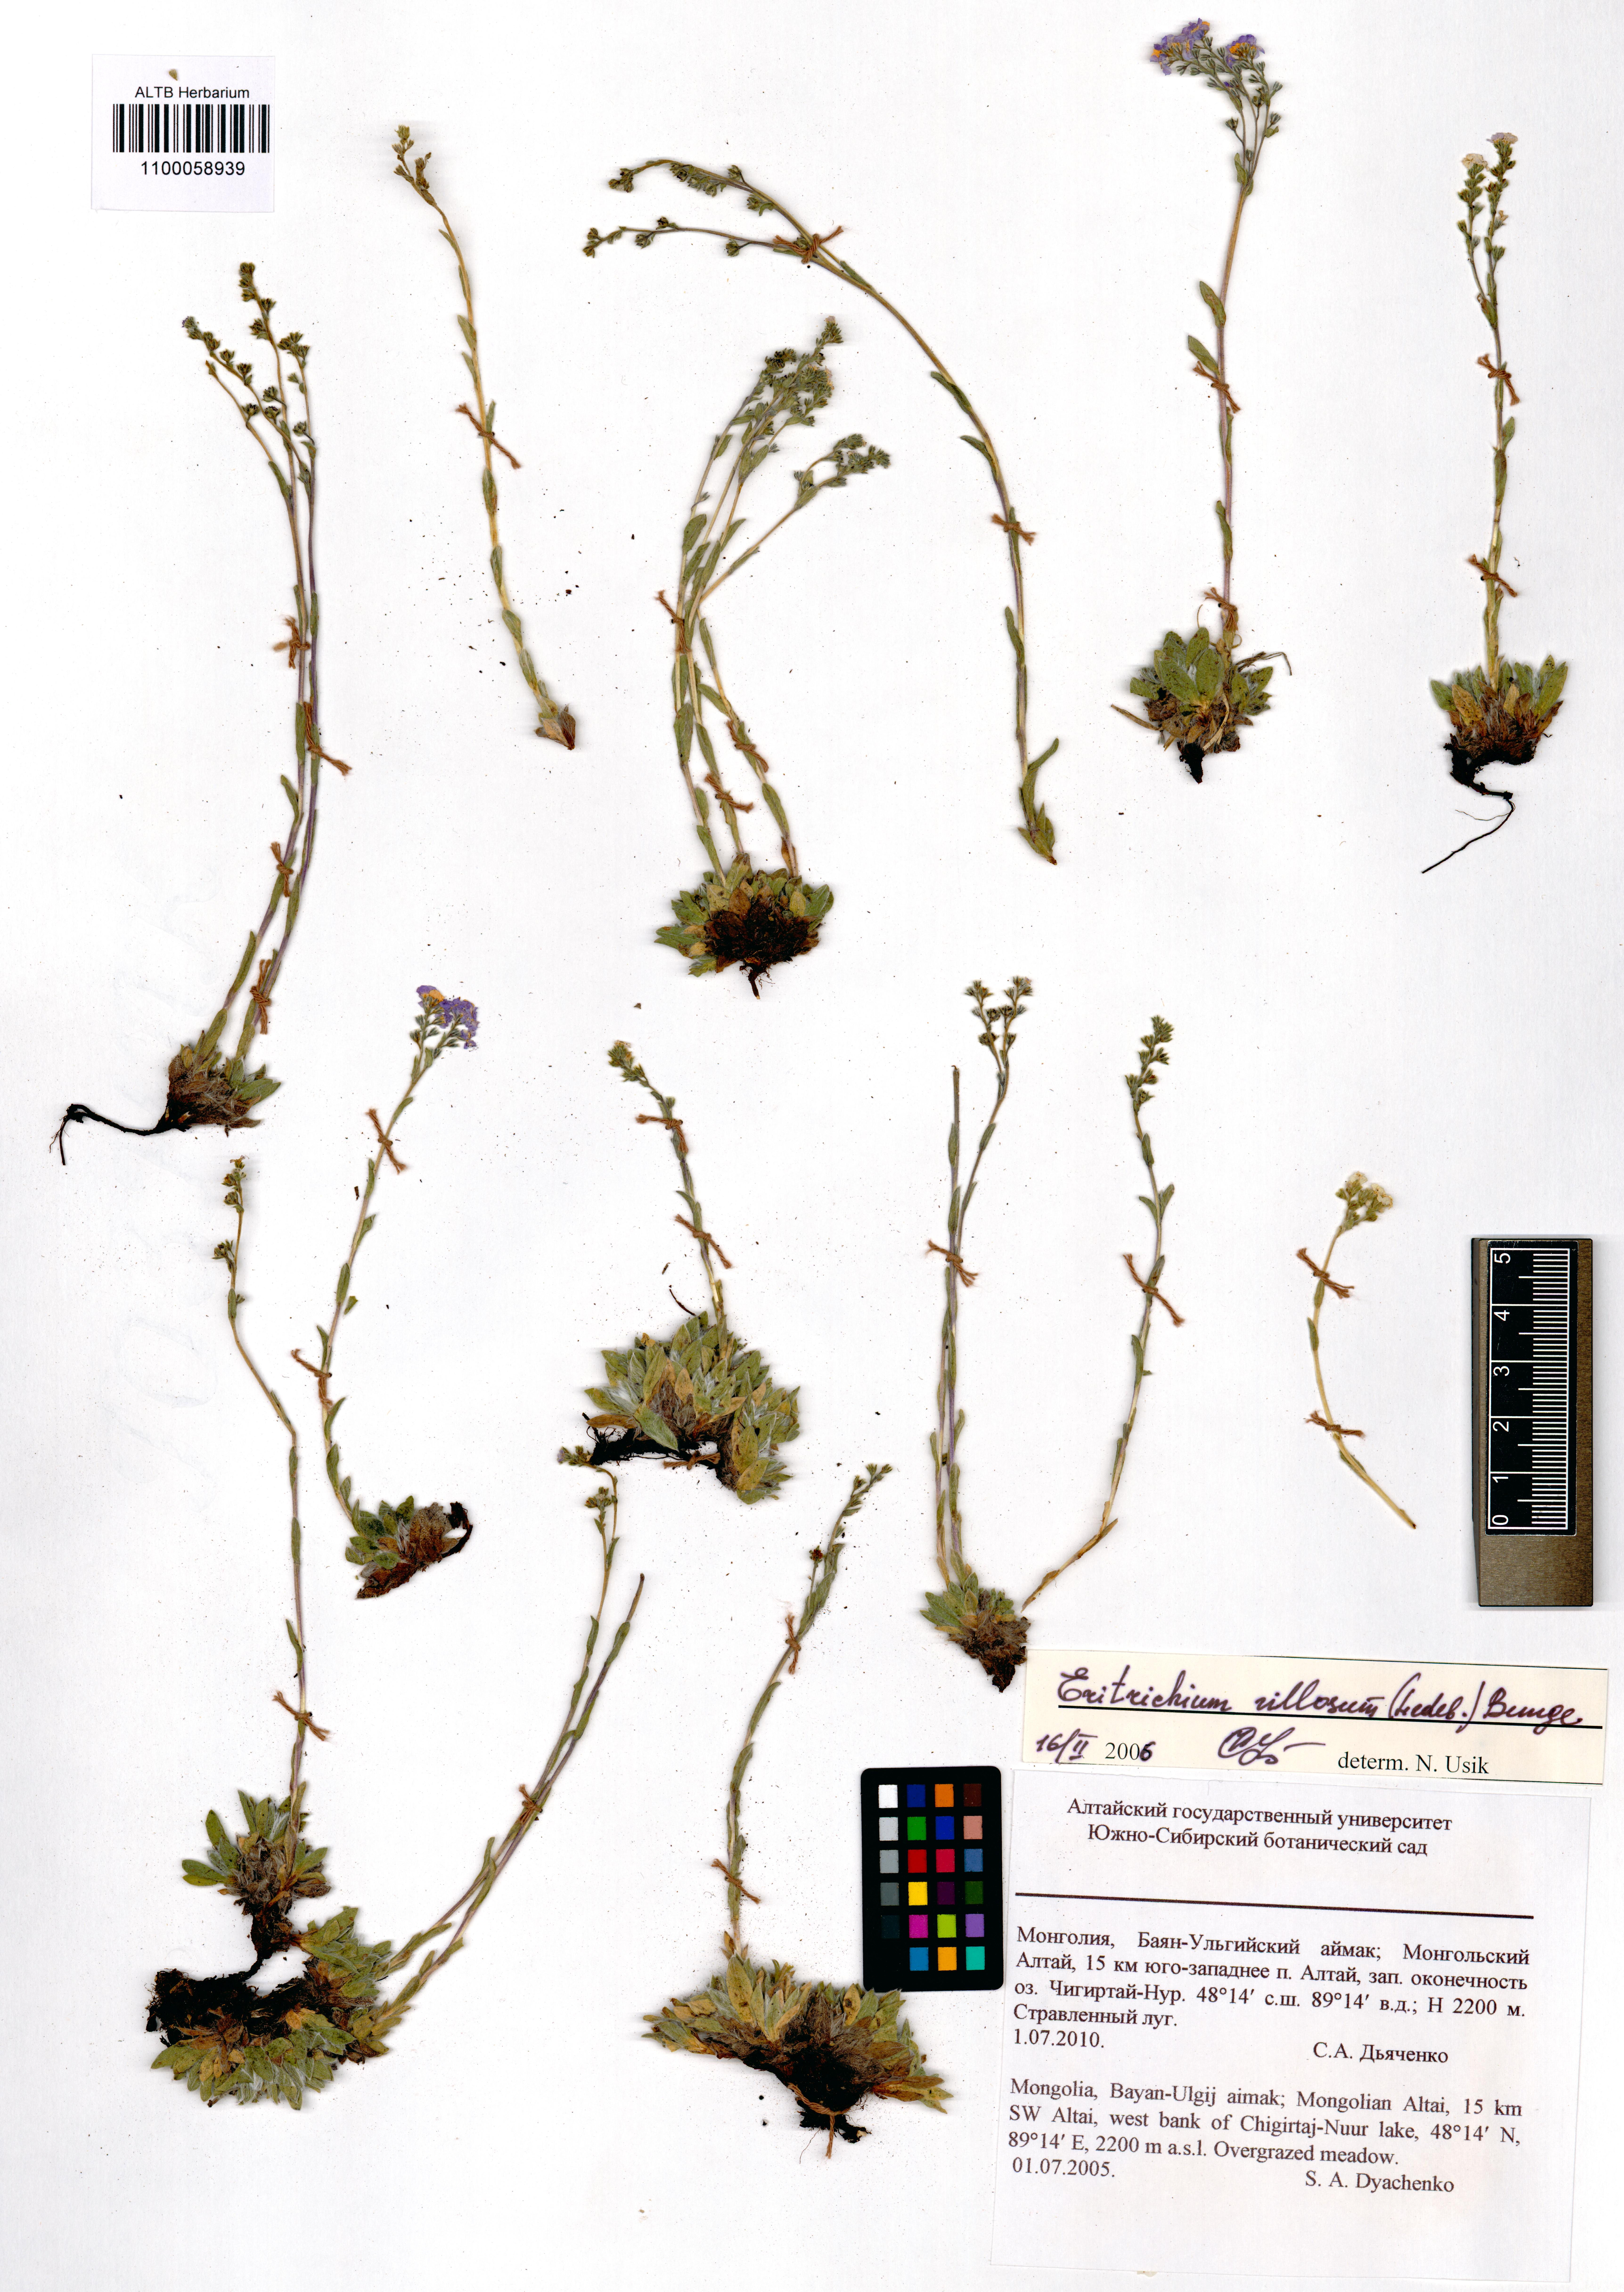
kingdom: Plantae
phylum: Tracheophyta
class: Magnoliopsida
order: Boraginales
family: Boraginaceae
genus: Eritrichium
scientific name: Eritrichium villosum
